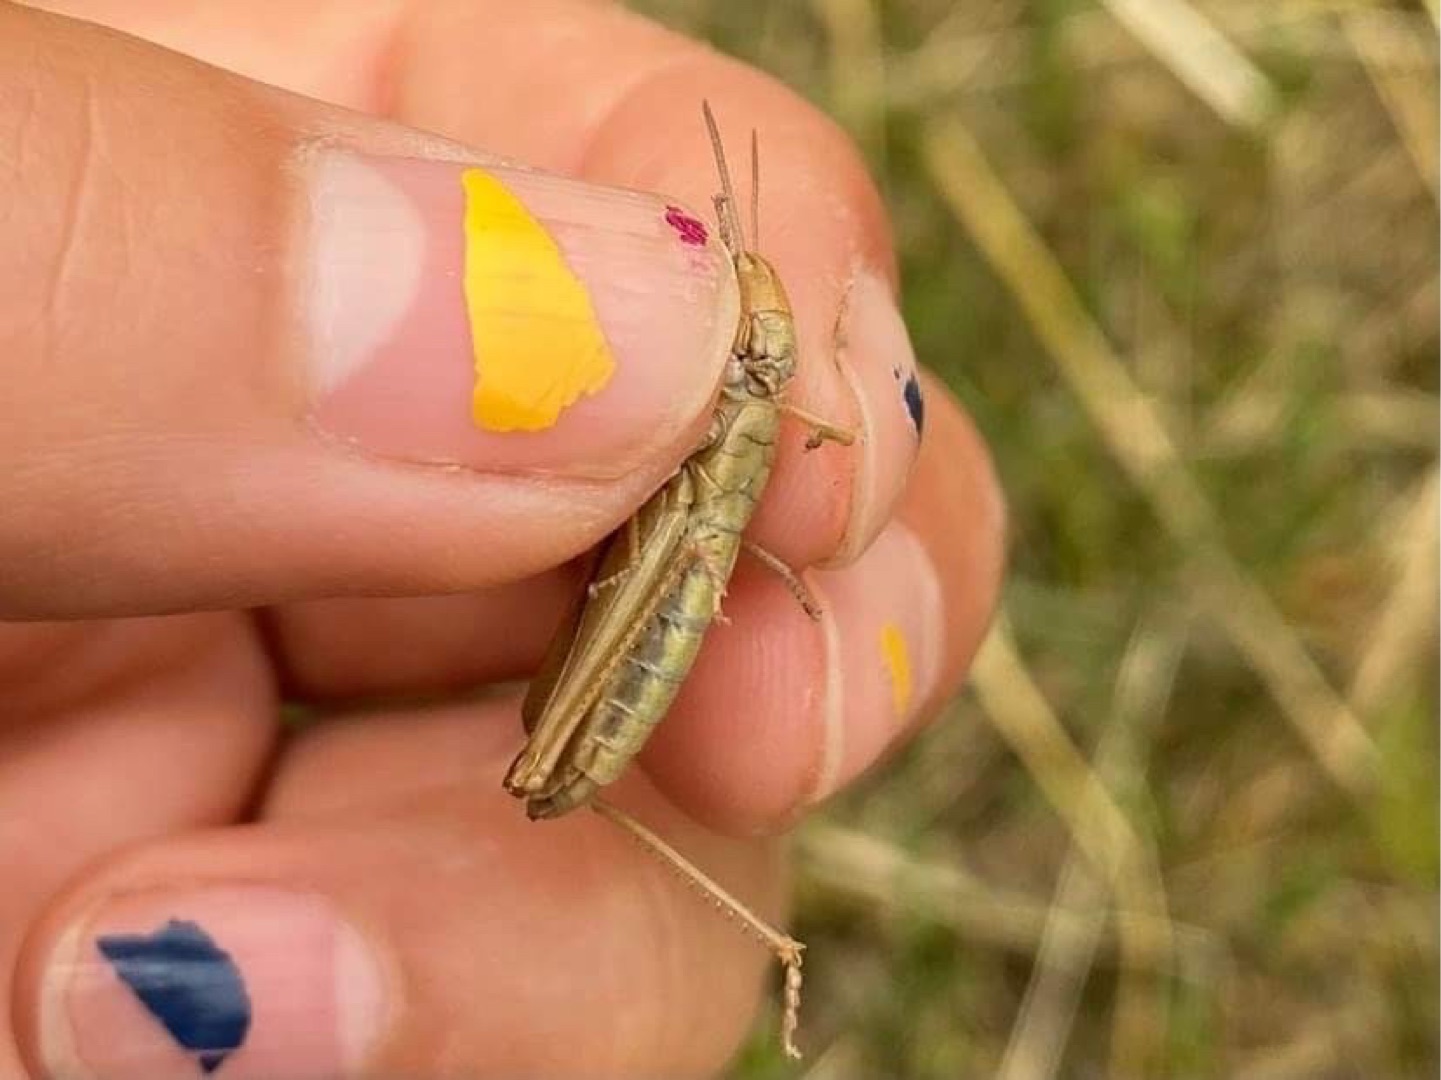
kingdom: Animalia
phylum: Arthropoda
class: Insecta
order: Lepidoptera
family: Nymphalidae
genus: Maniola
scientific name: Maniola jurtina
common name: Græsrandøje
